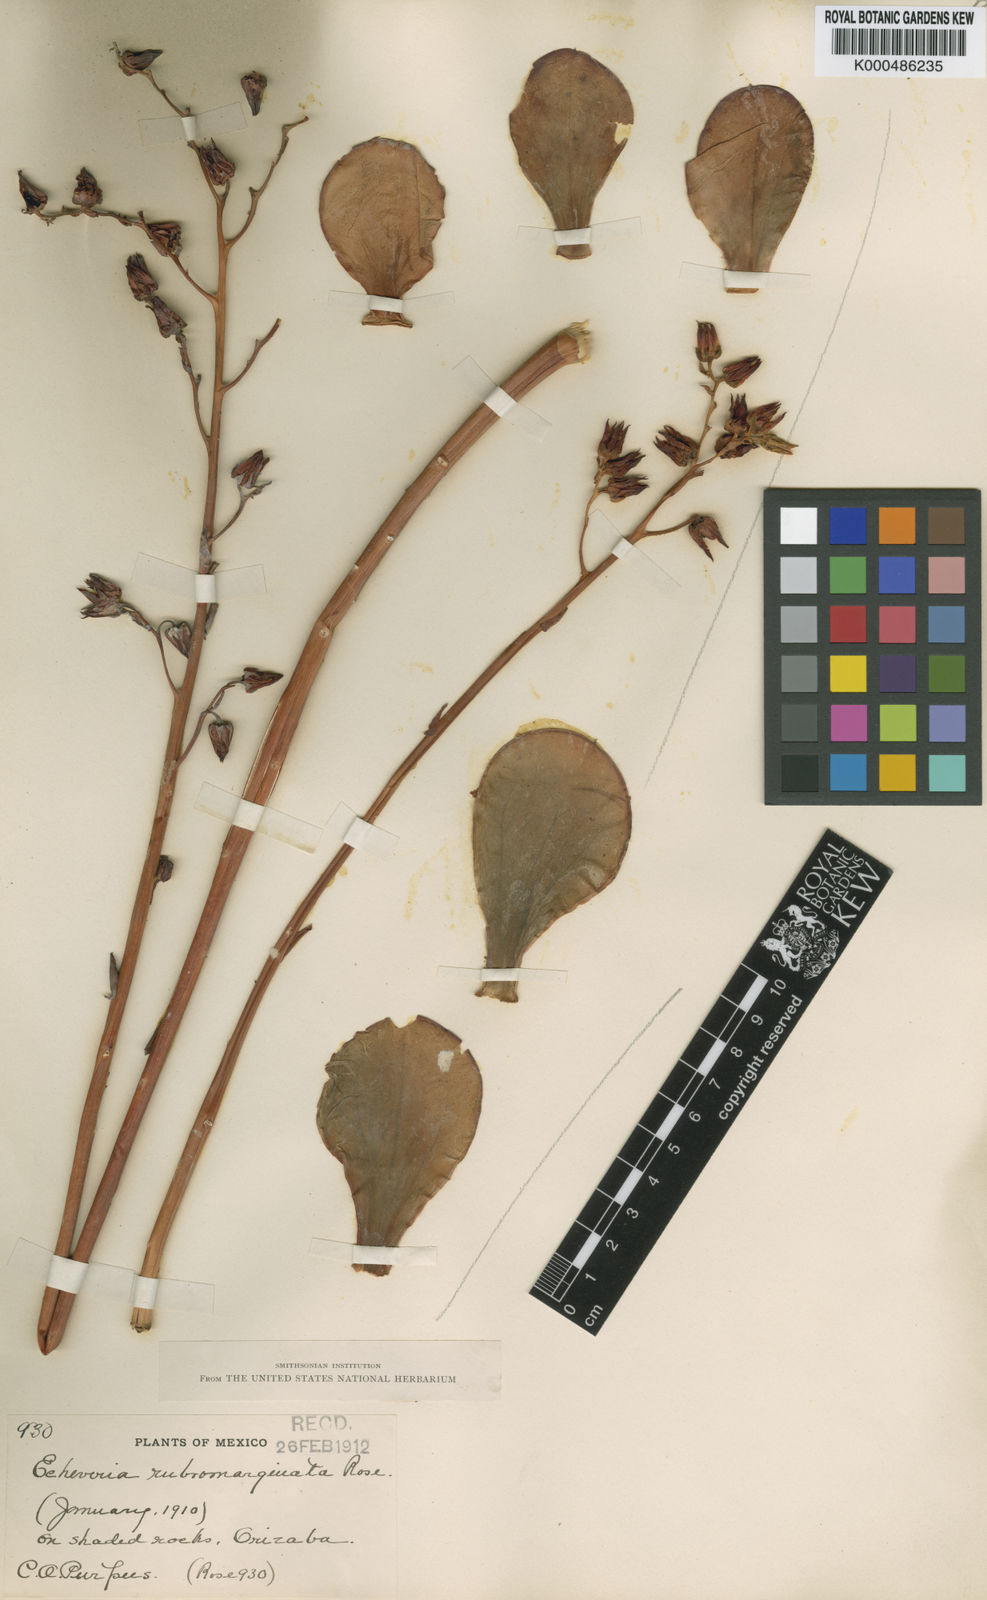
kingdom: Plantae
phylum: Tracheophyta
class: Magnoliopsida
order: Saxifragales
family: Crassulaceae
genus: Echeveria
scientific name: Echeveria rubromarginata
